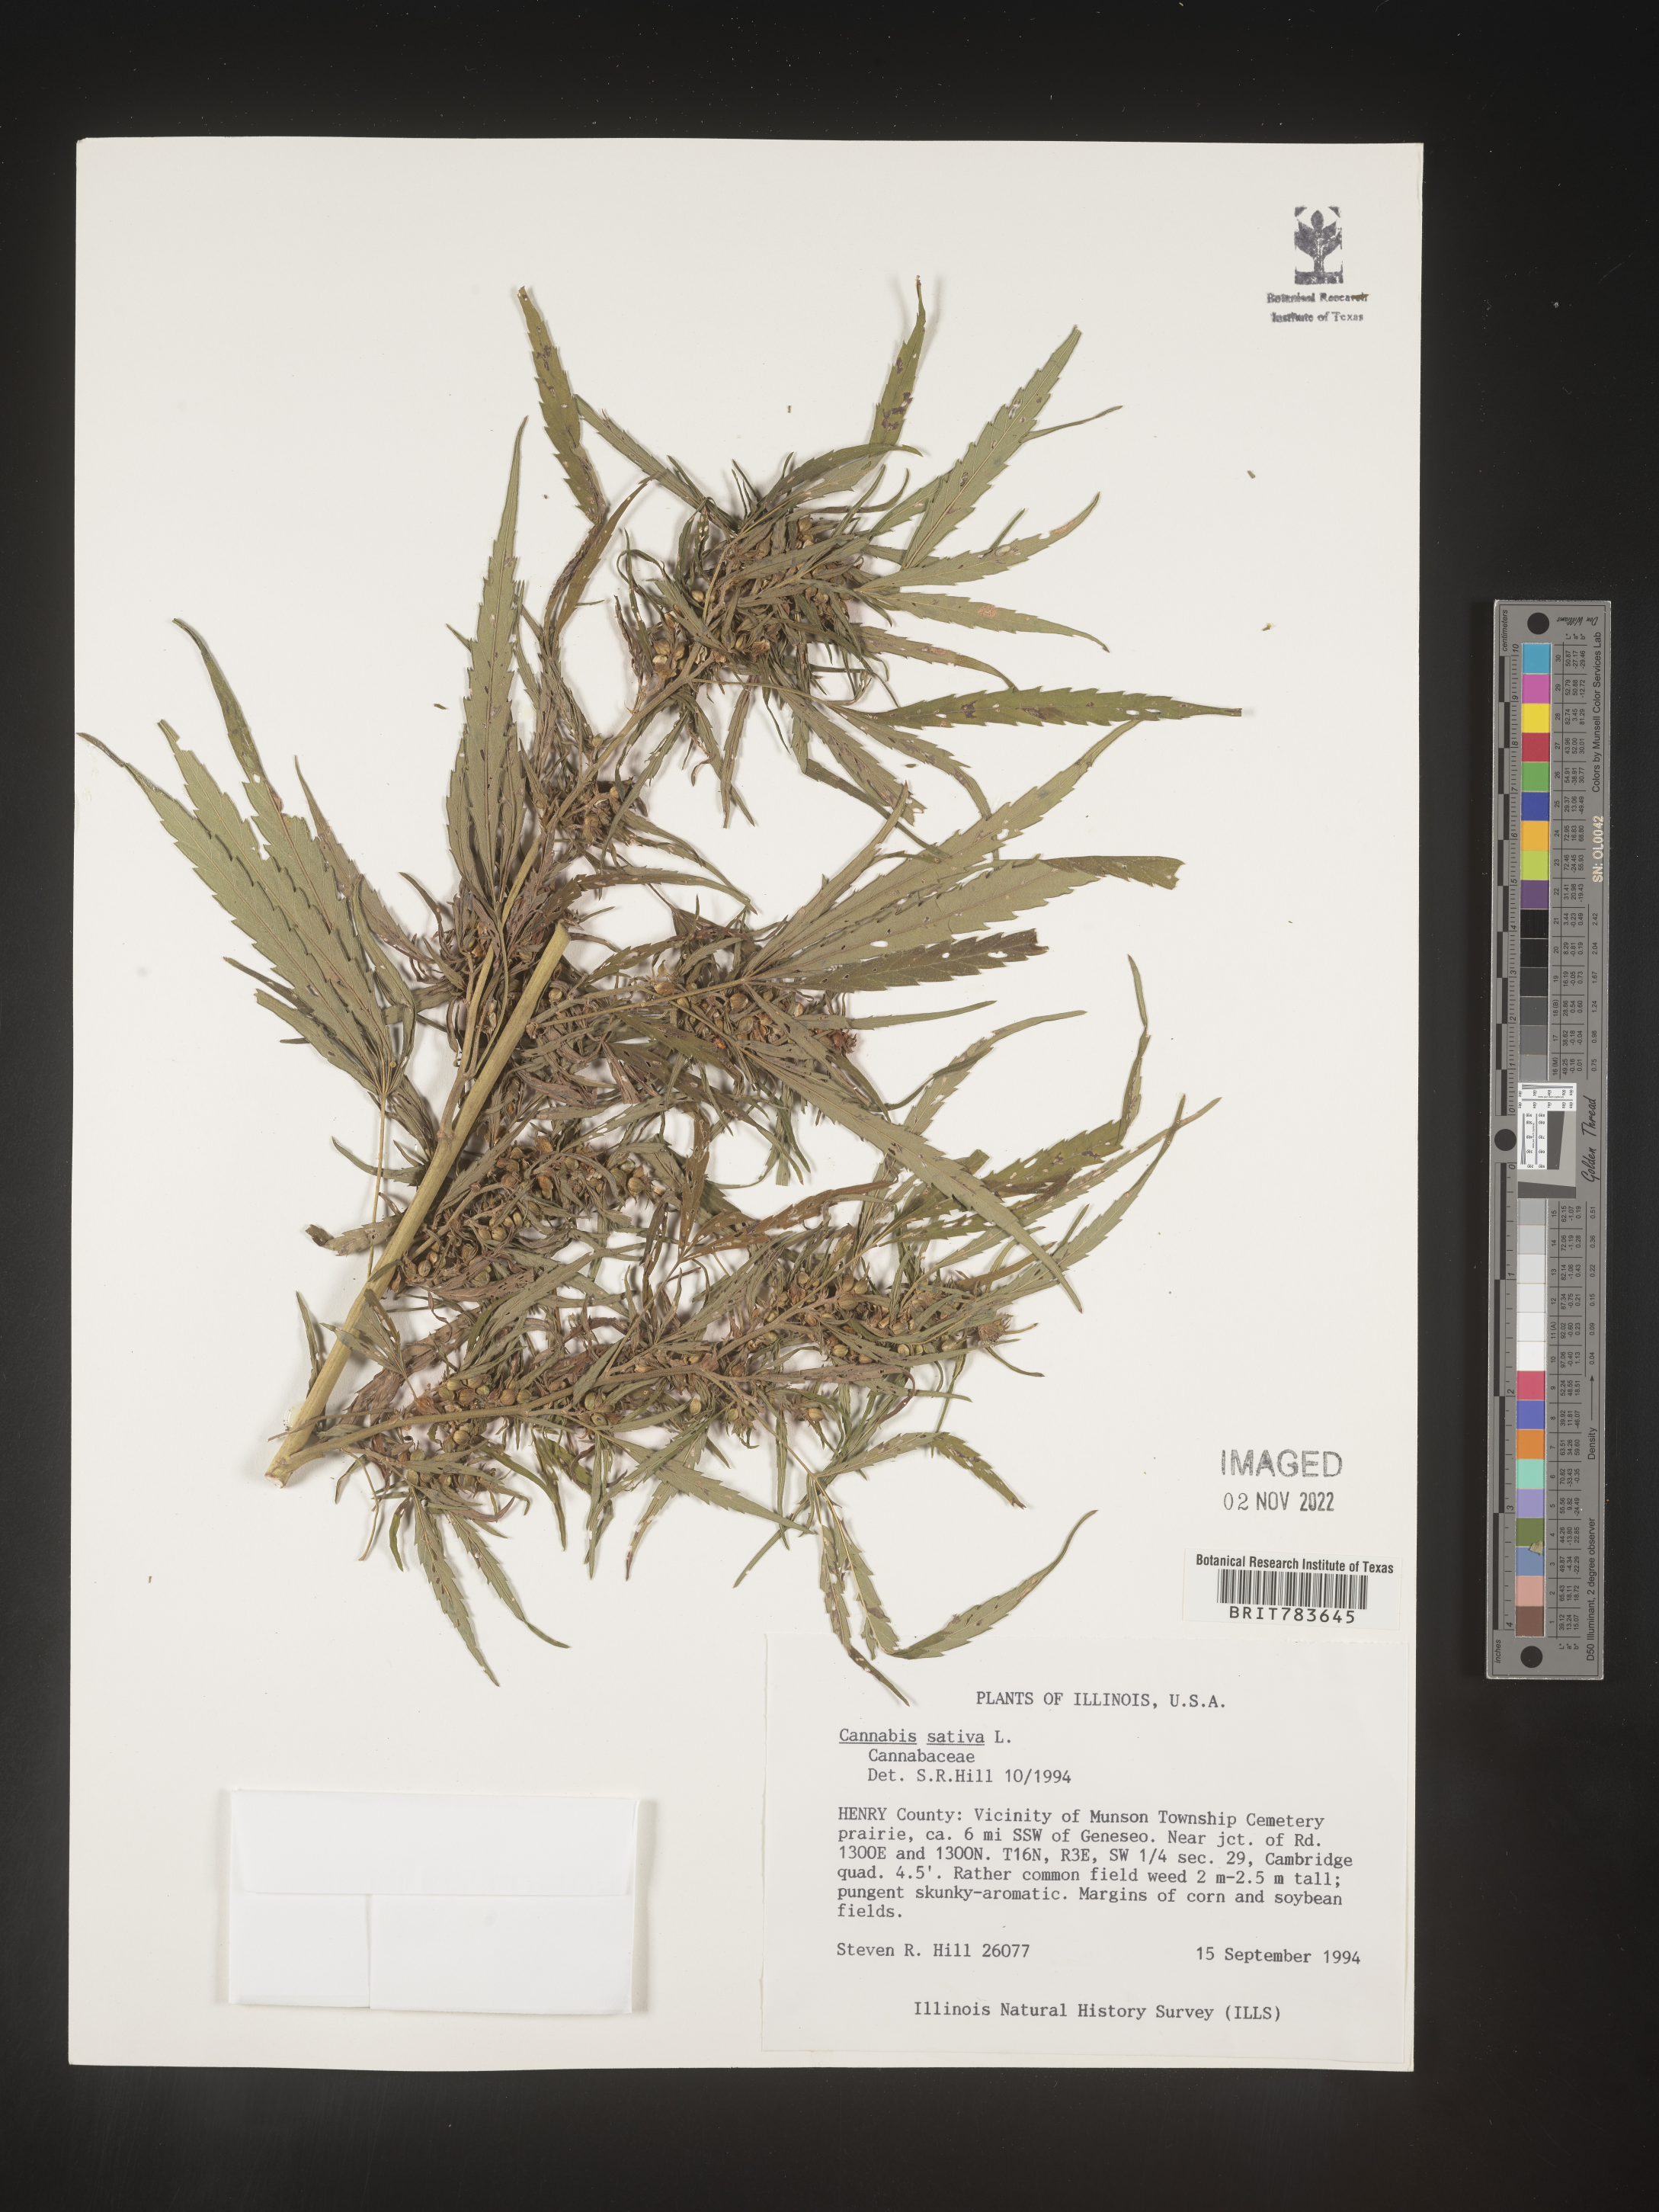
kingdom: Plantae
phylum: Tracheophyta
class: Magnoliopsida
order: Rosales
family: Cannabaceae
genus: Cannabis
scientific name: Cannabis sativa
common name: Hemp
